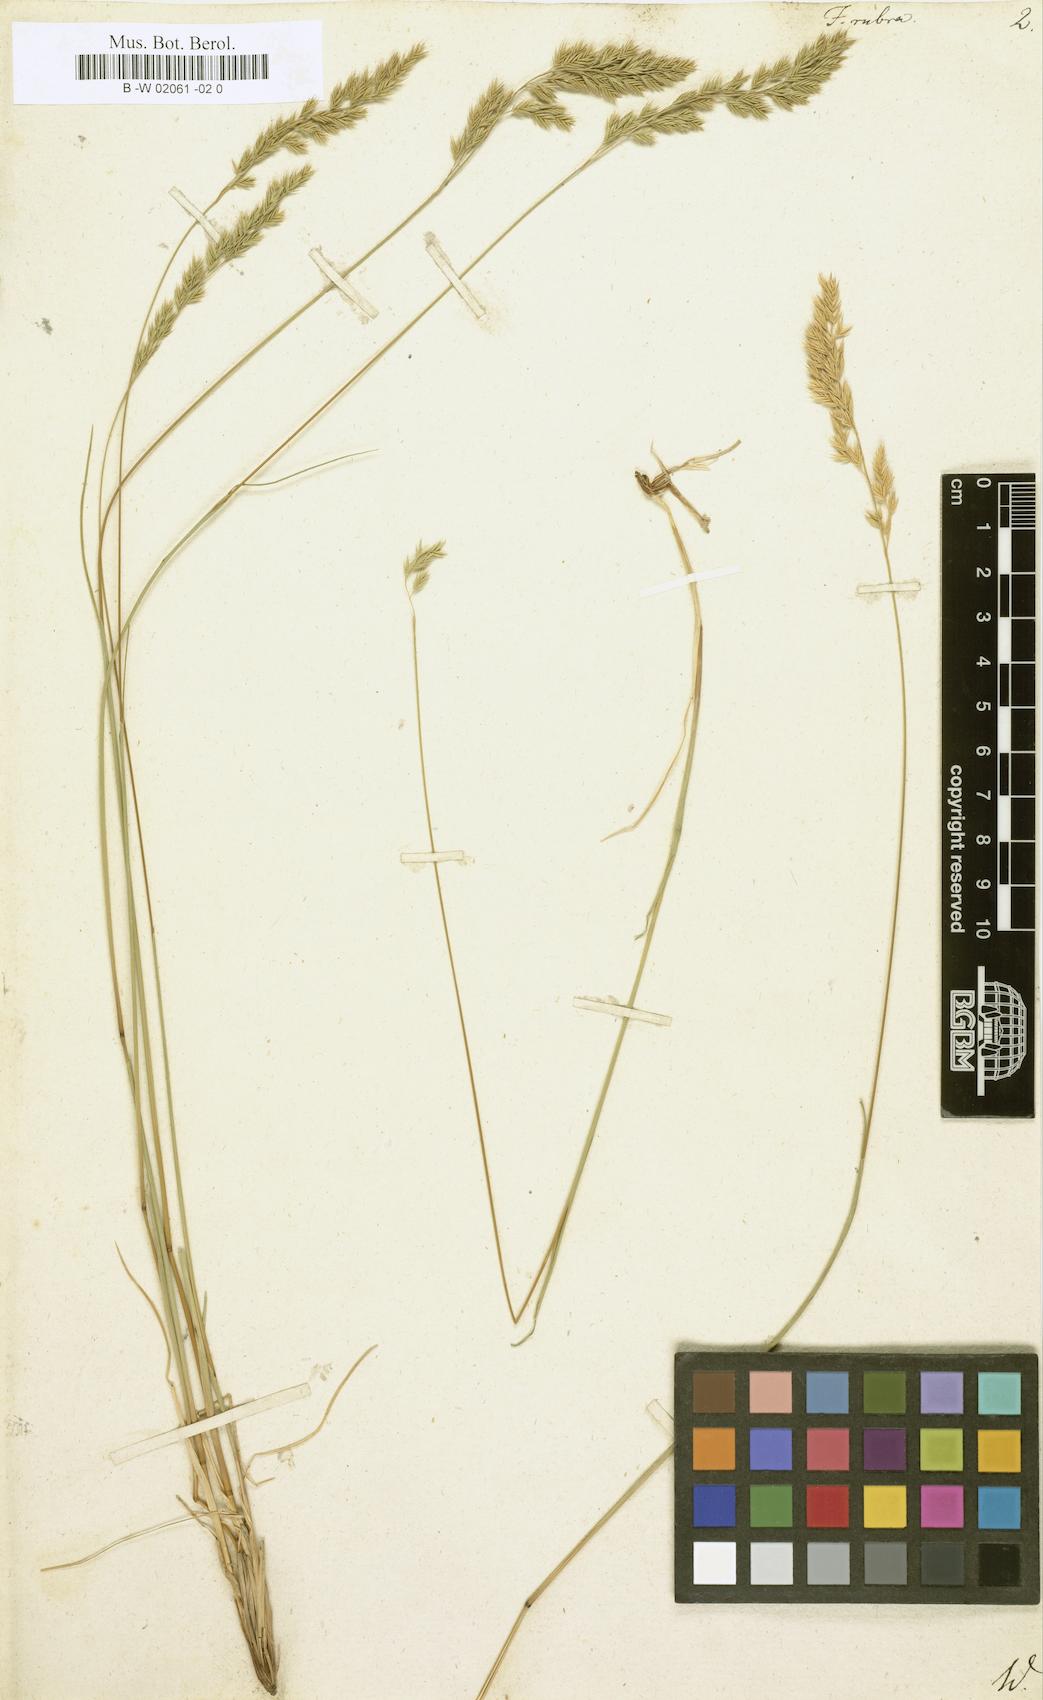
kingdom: Plantae
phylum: Tracheophyta
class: Liliopsida
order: Poales
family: Poaceae
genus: Festuca
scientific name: Festuca rubra
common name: Red fescue
